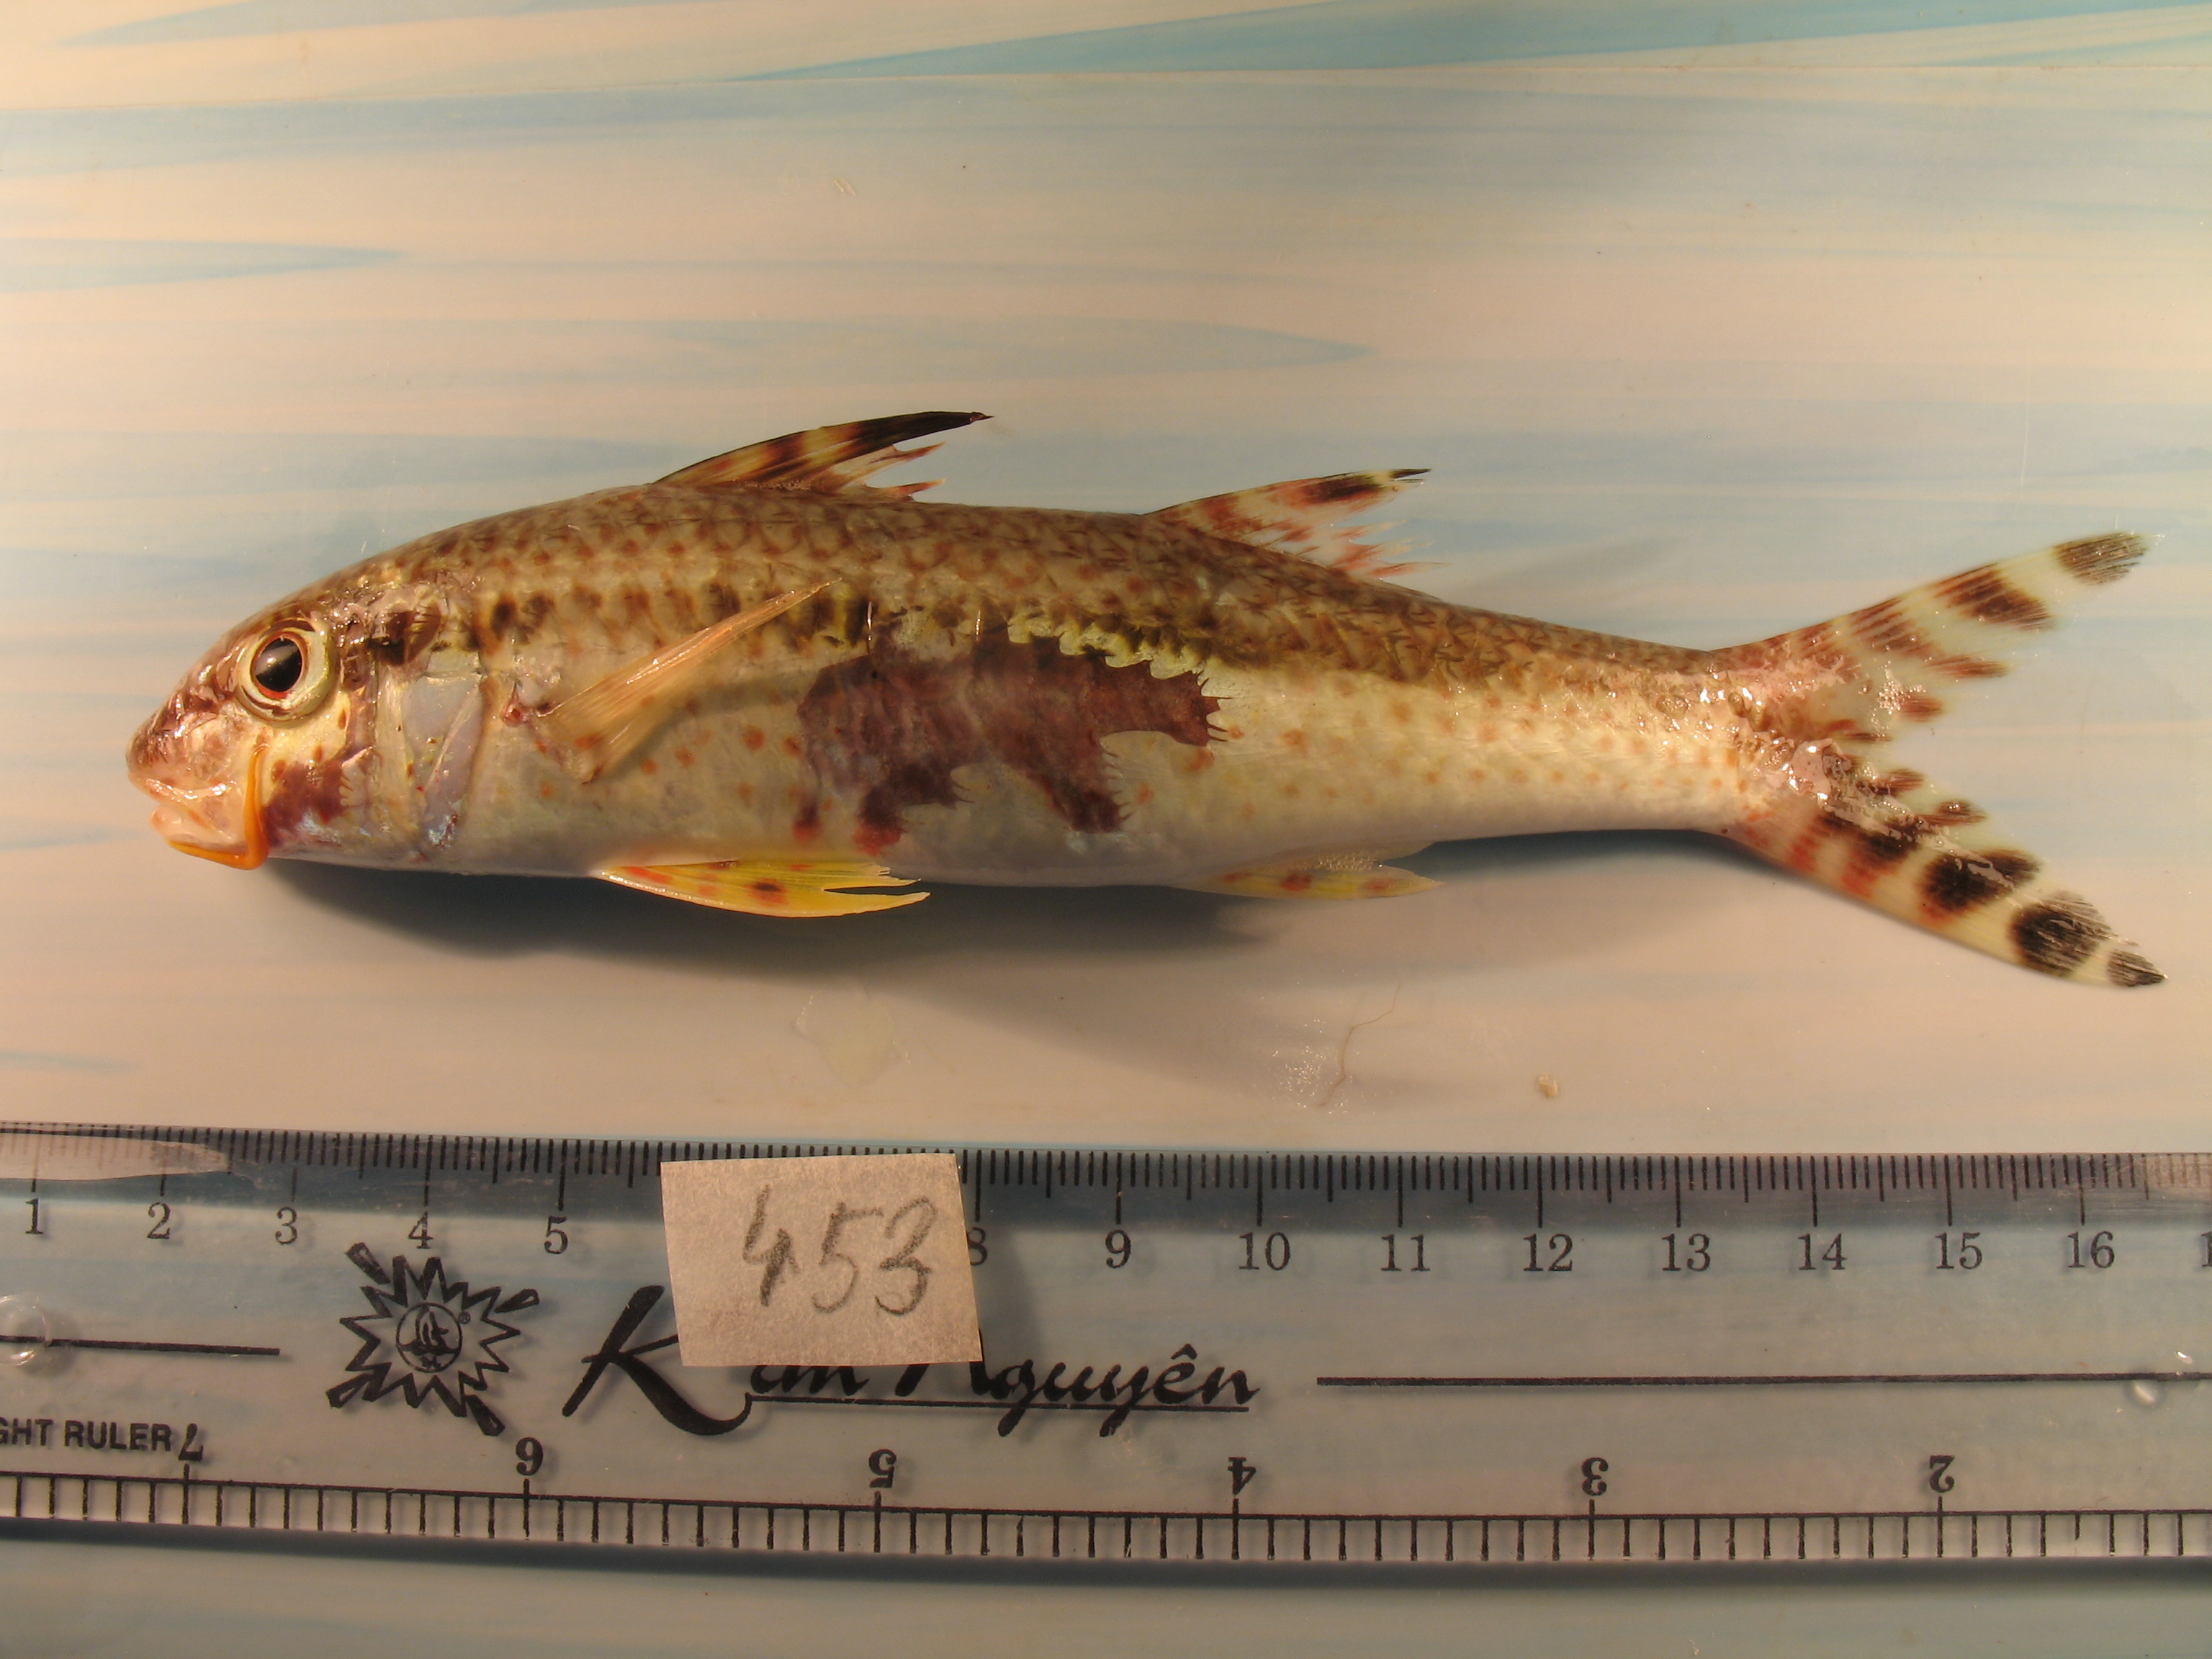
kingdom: Animalia
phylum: Chordata
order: Perciformes
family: Mullidae
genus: Upeneus
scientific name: Upeneus tragula
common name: Freckled goatfish
